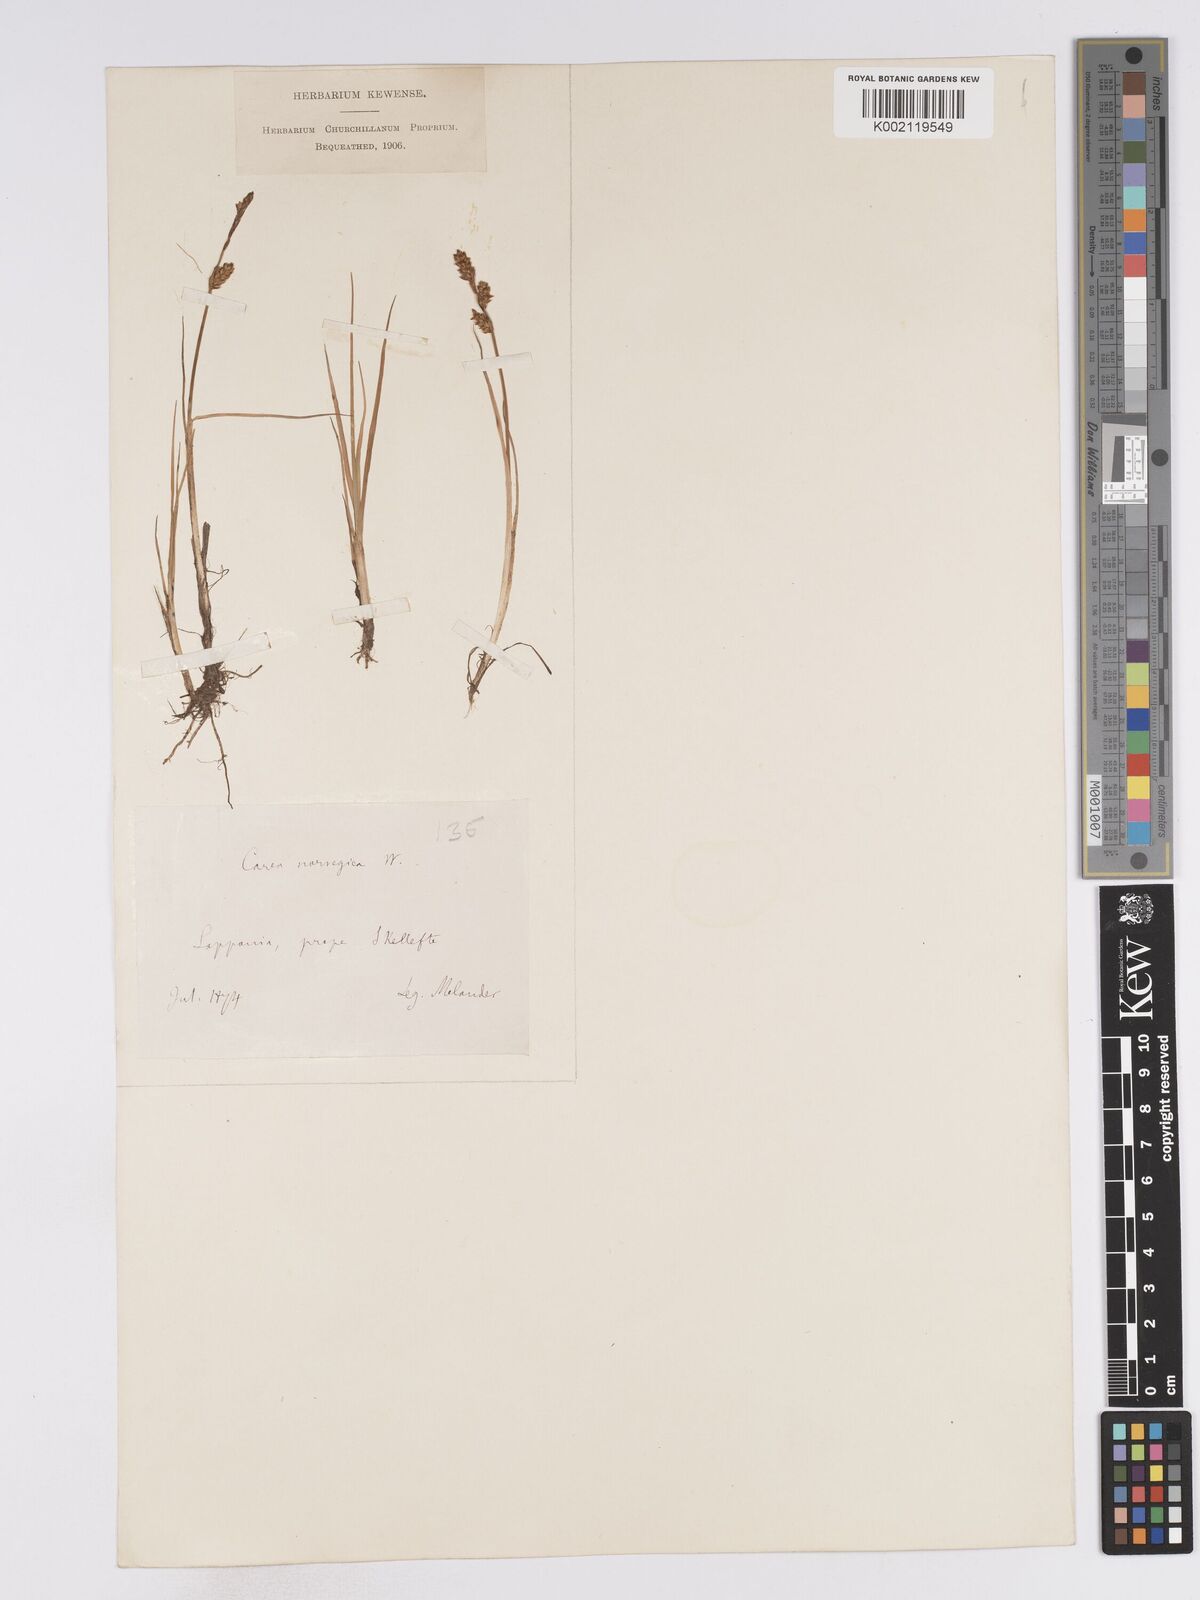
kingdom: Plantae
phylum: Tracheophyta
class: Liliopsida
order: Poales
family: Cyperaceae
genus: Carex
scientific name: Carex mackenziei
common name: Mackenzie's sedge
